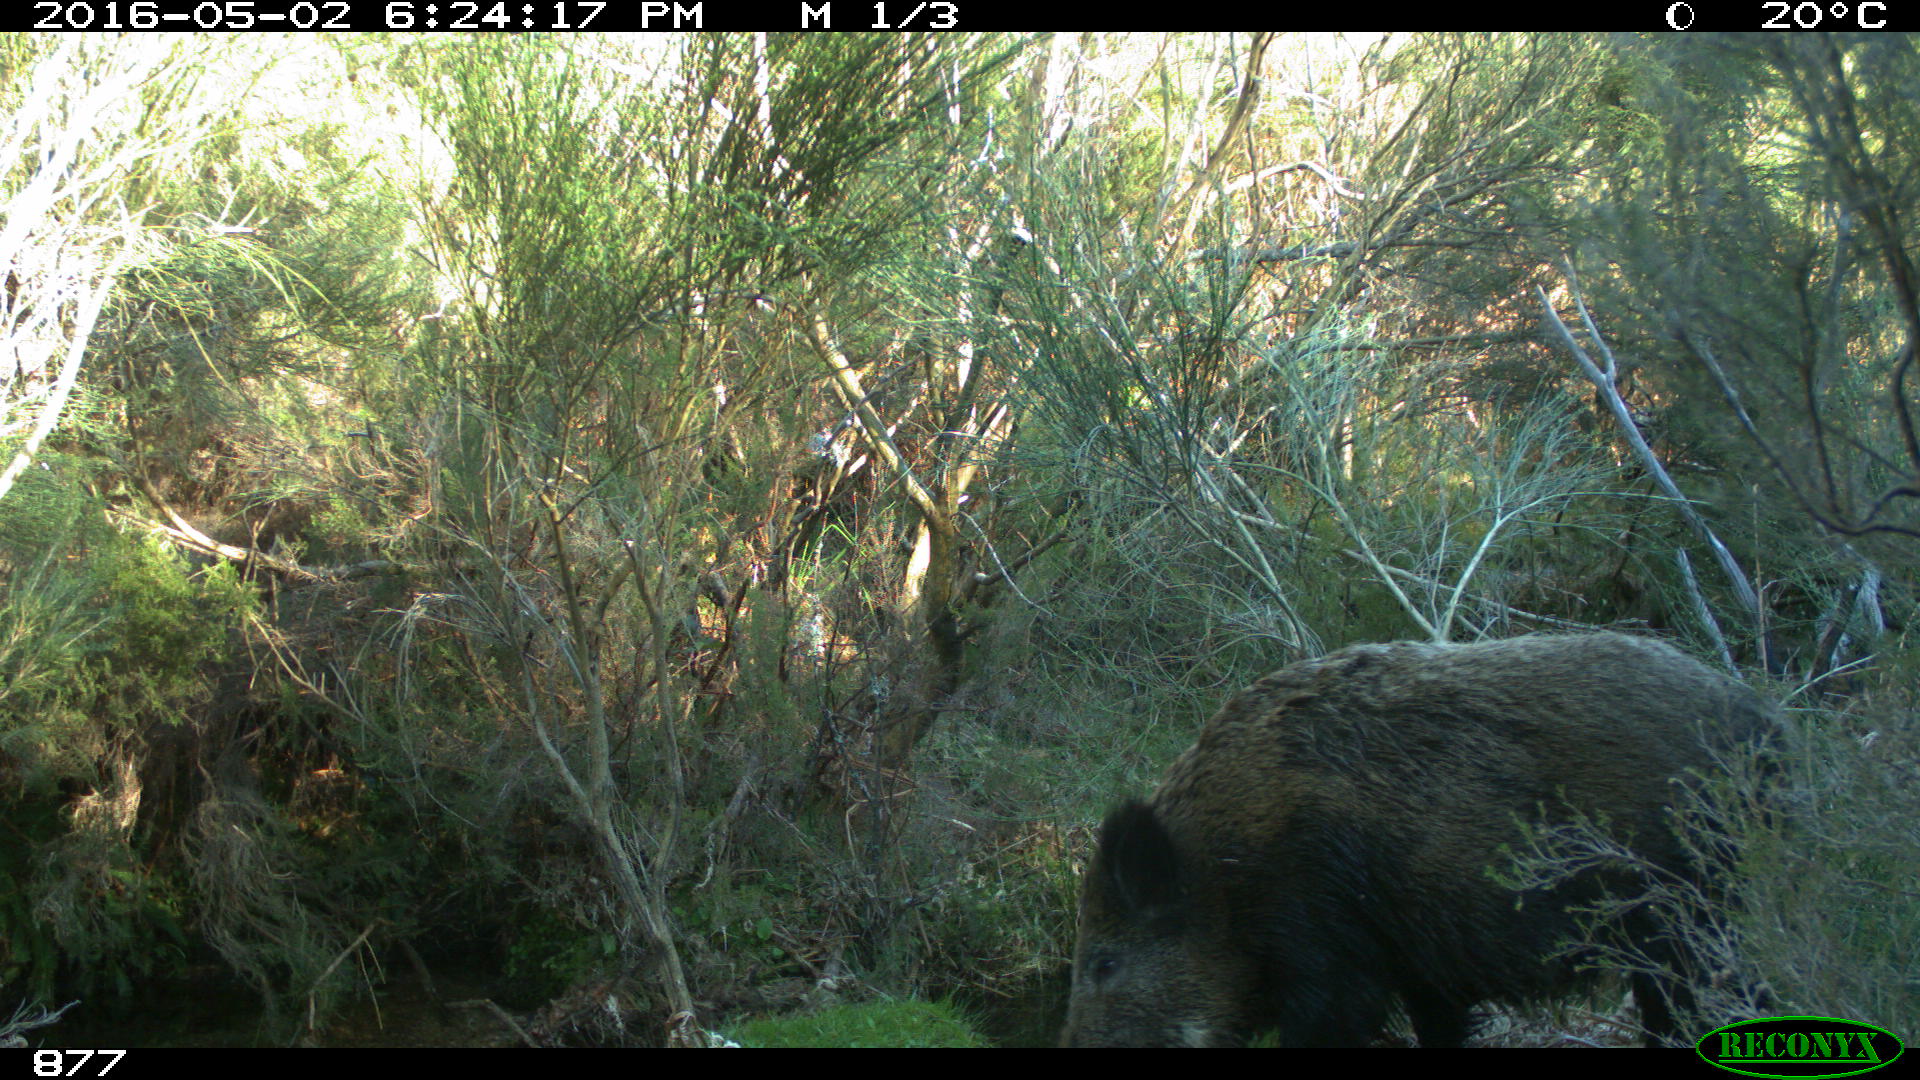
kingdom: Animalia
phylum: Chordata
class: Mammalia
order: Artiodactyla
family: Suidae
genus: Sus
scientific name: Sus scrofa
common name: Wild boar
